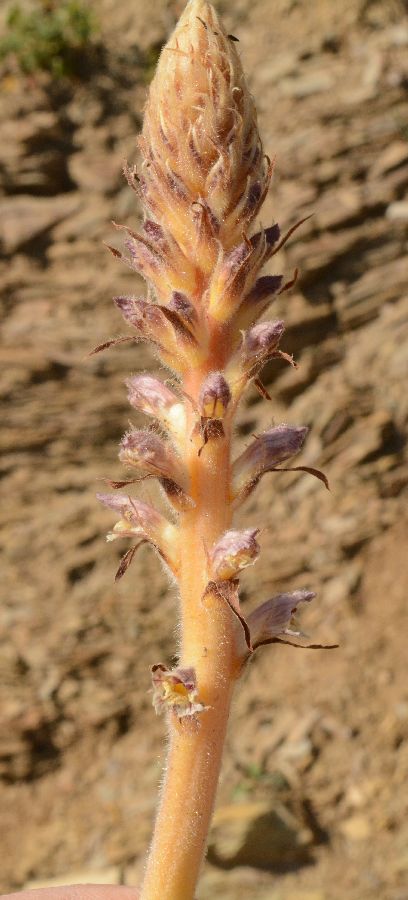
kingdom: Plantae
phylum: Tracheophyta
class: Magnoliopsida
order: Lamiales
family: Orobanchaceae
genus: Orobanche
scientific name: Orobanche
